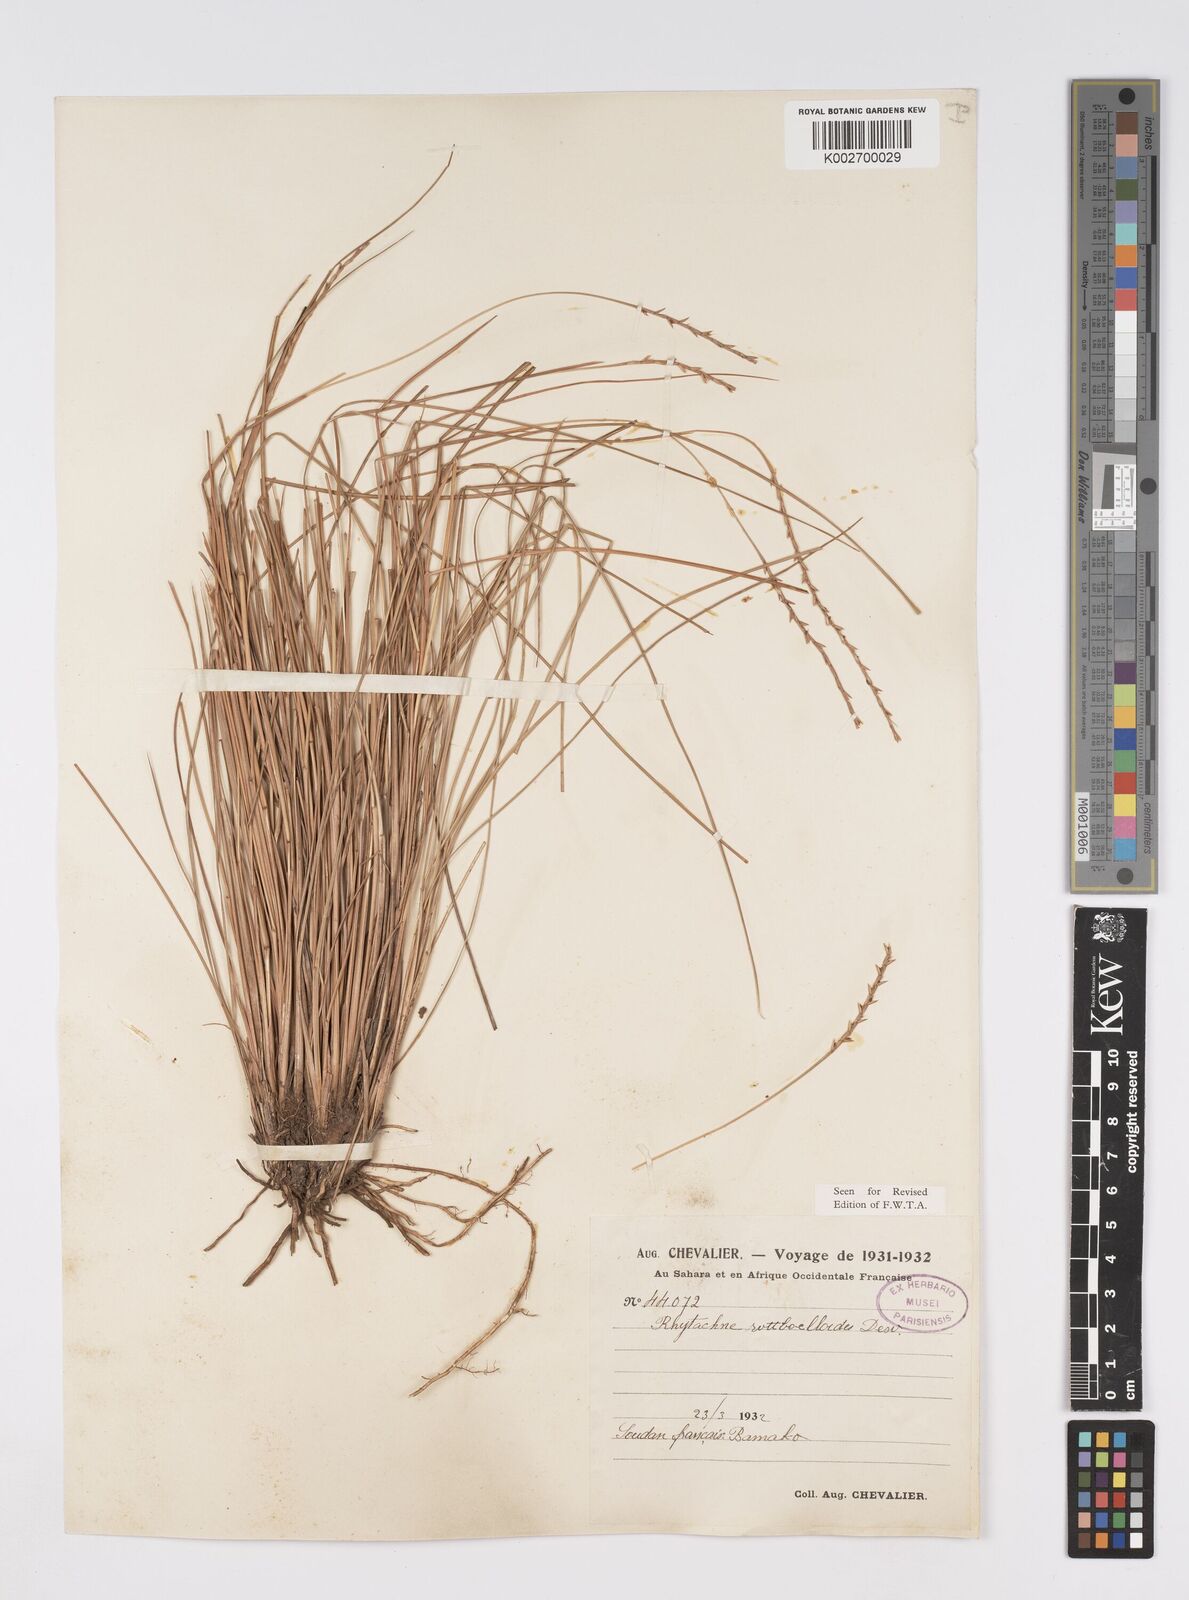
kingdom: Plantae
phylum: Tracheophyta
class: Liliopsida
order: Poales
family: Poaceae
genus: Rhytachne
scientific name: Rhytachne rottboellioides
